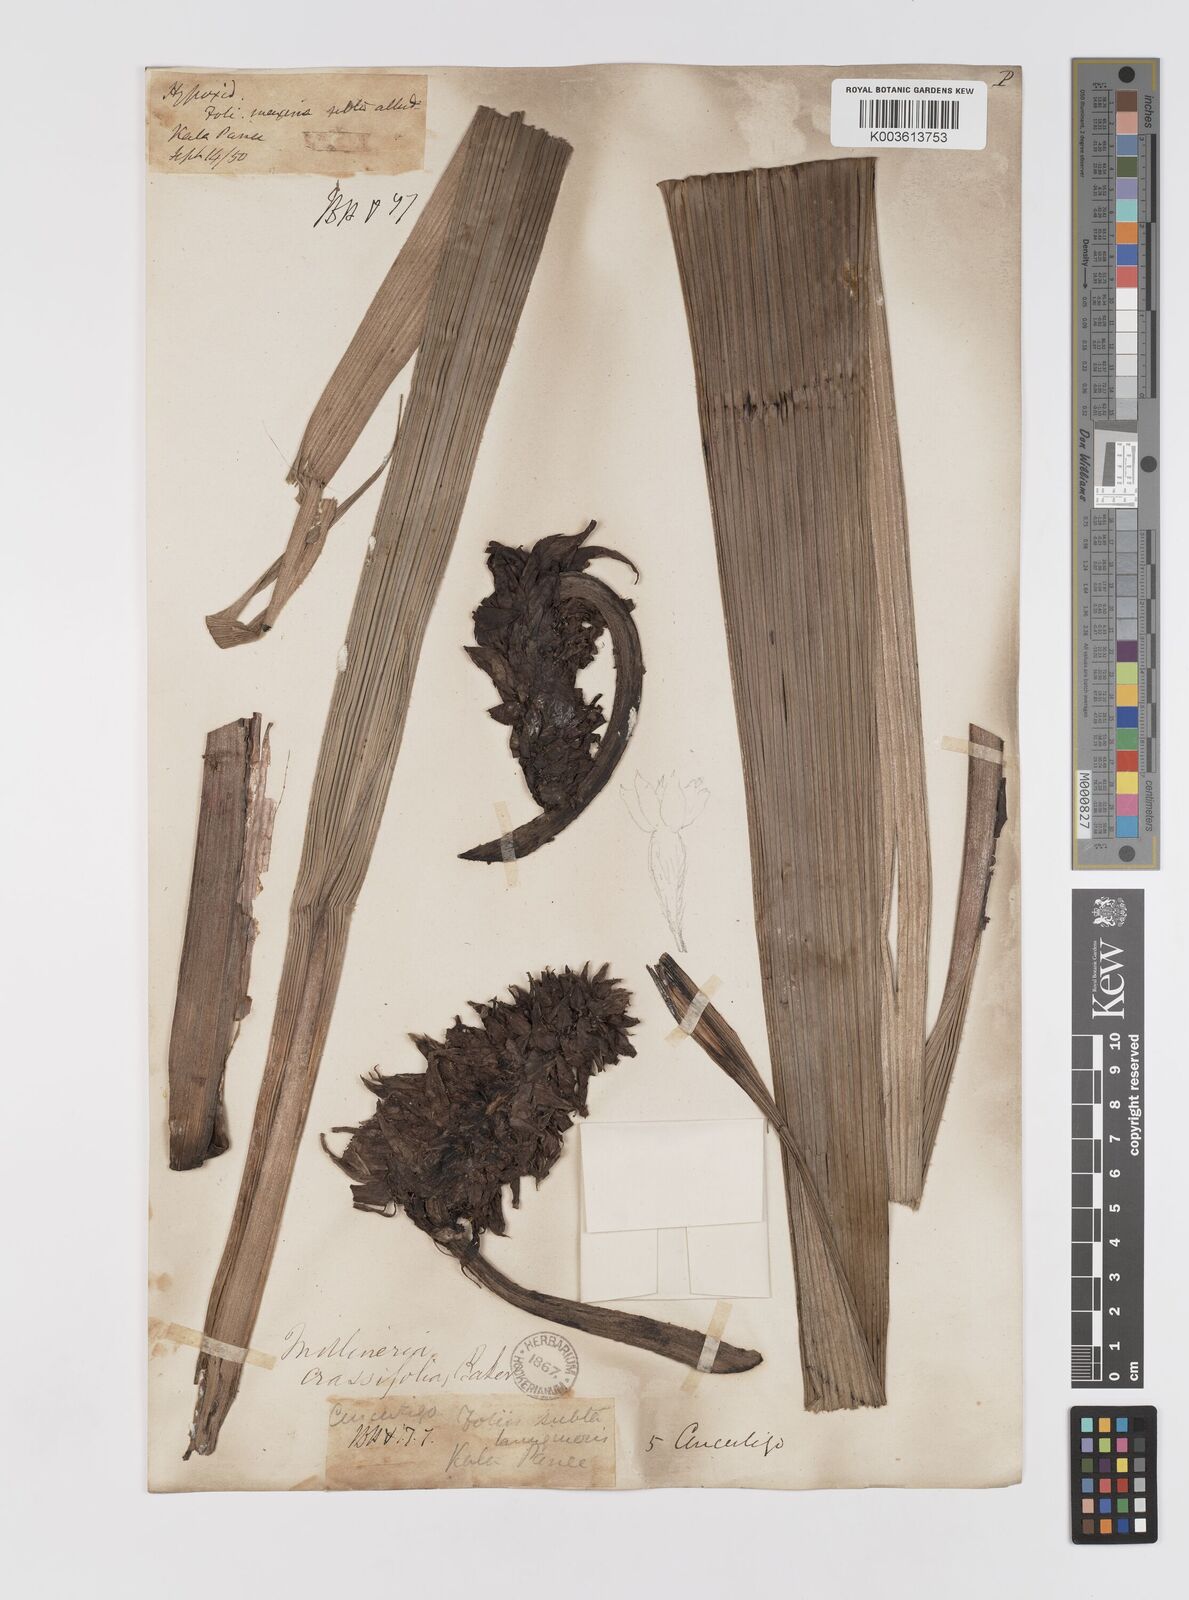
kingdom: Plantae
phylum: Tracheophyta
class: Liliopsida
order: Asparagales
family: Hypoxidaceae
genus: Curculigo
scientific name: Curculigo crassifolia
